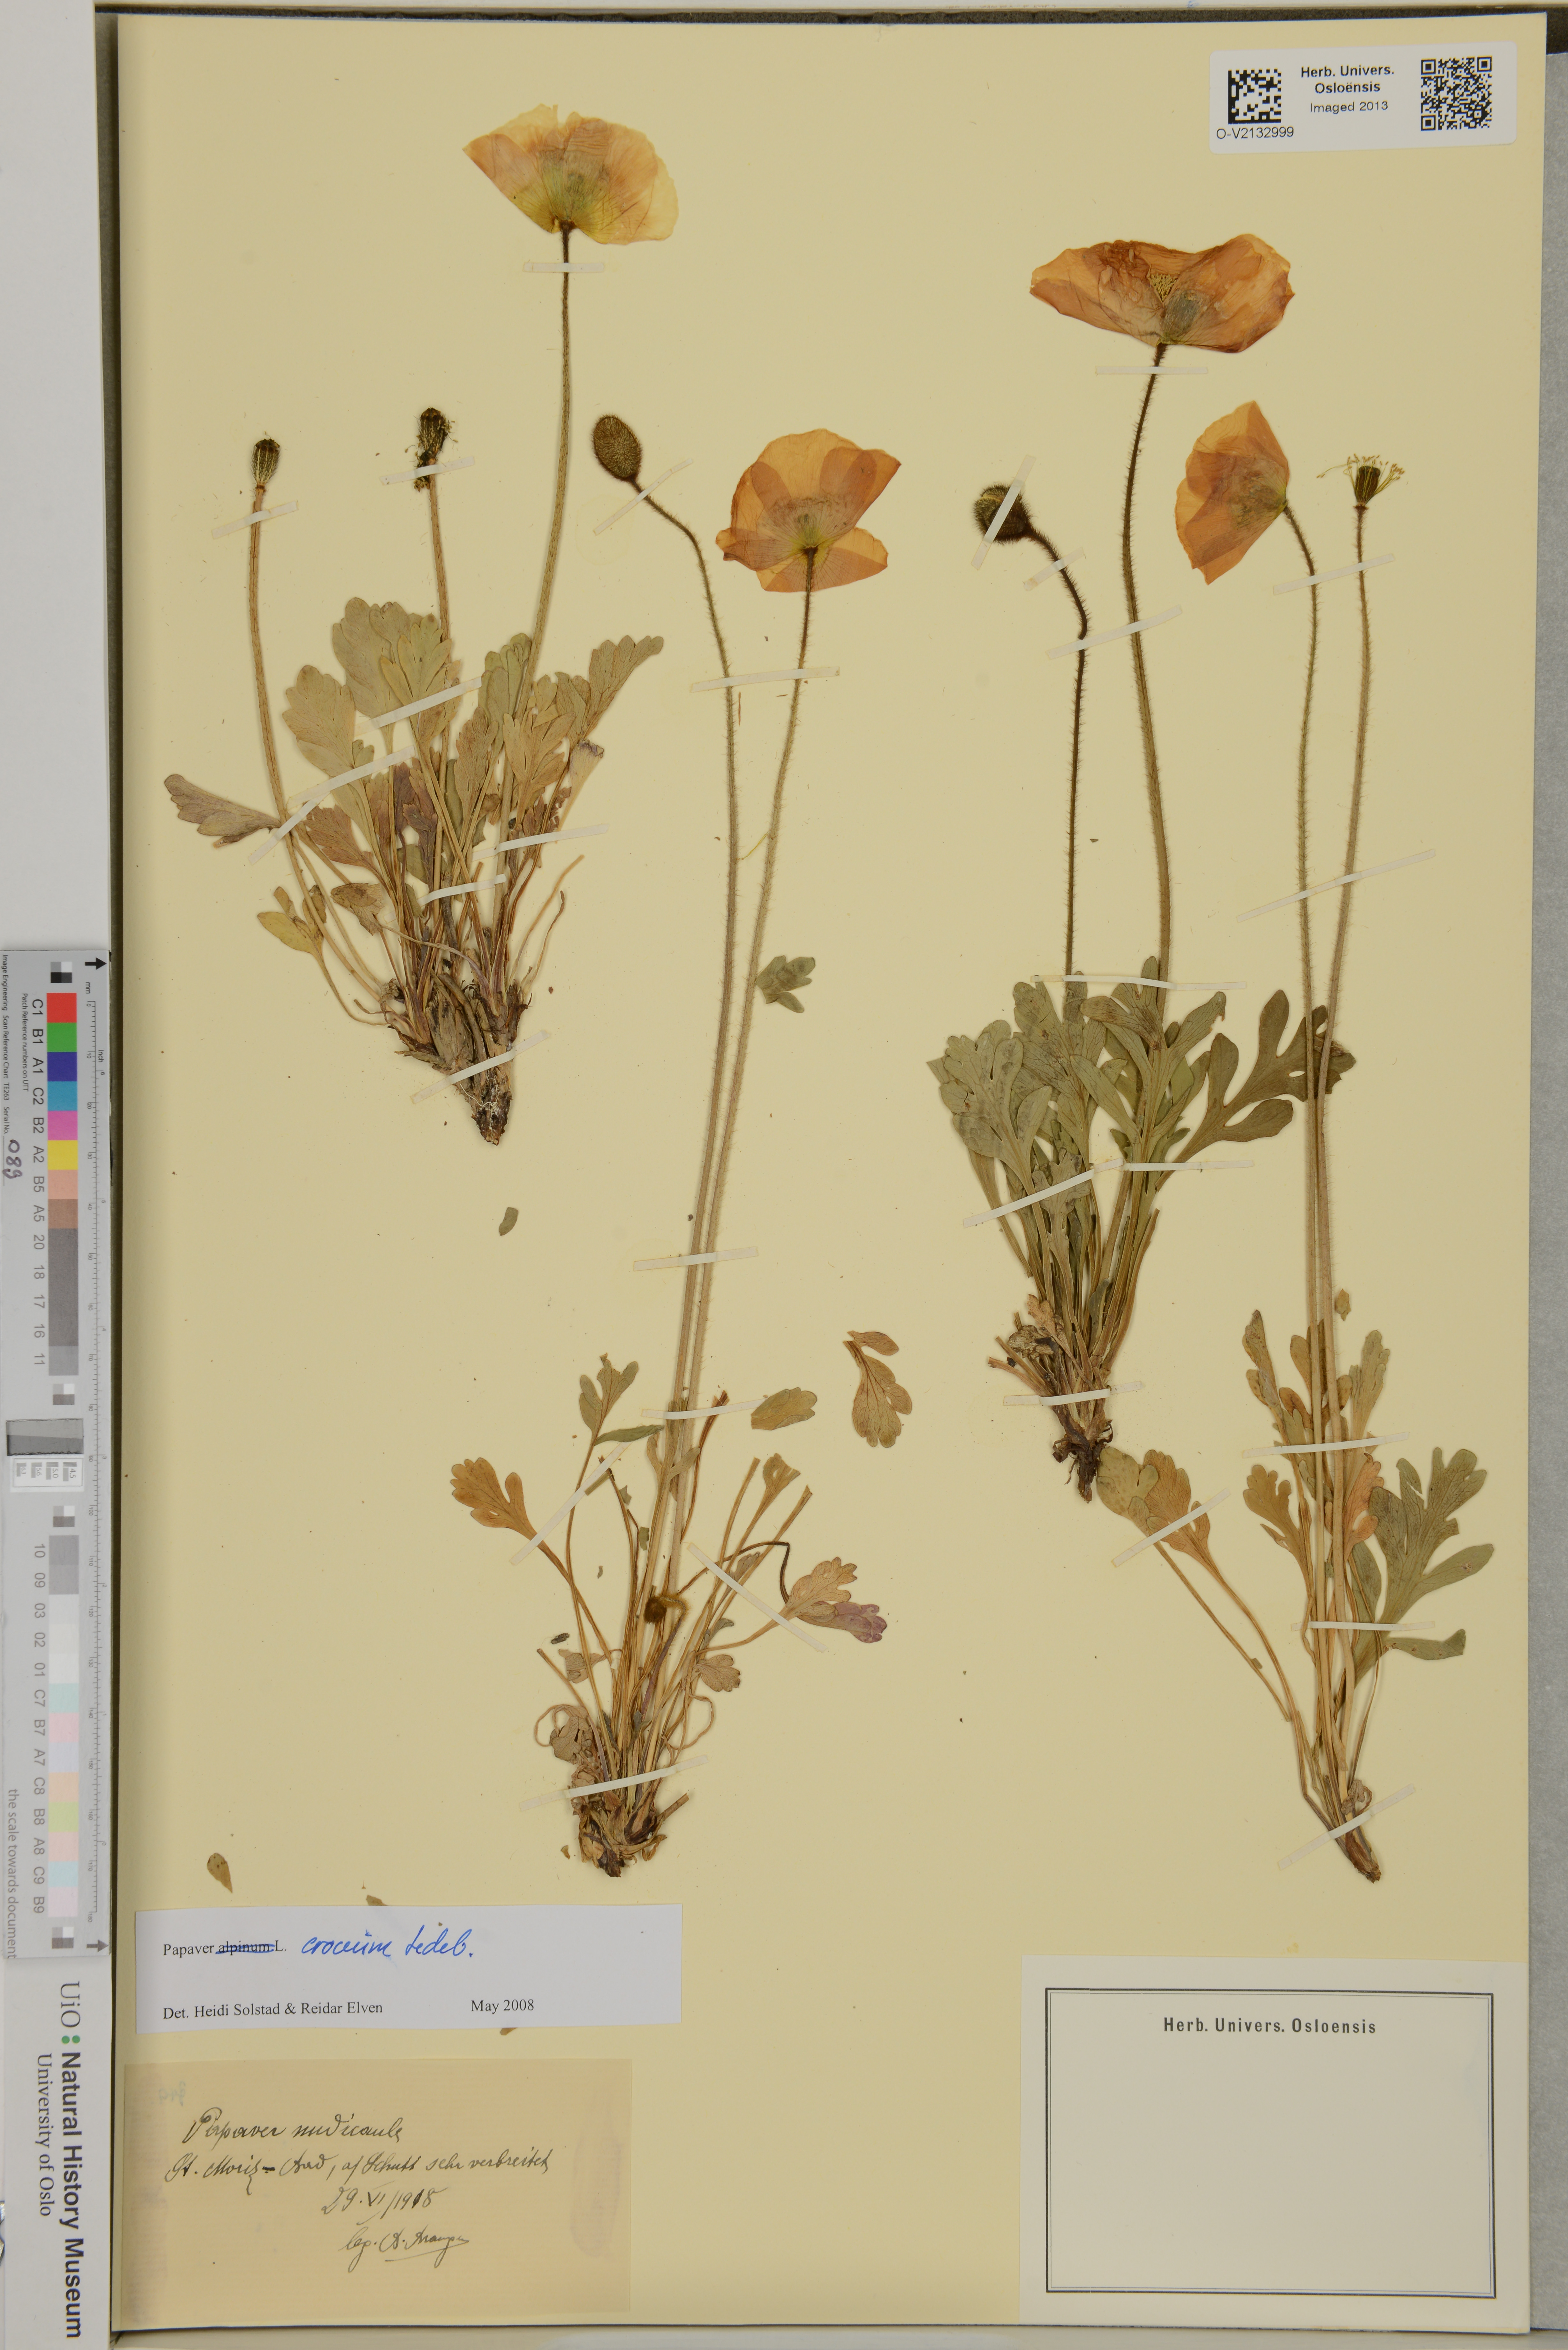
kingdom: Plantae
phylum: Tracheophyta
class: Magnoliopsida
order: Ranunculales
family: Papaveraceae
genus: Papaver
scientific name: Papaver croceum
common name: Siberian poppy
